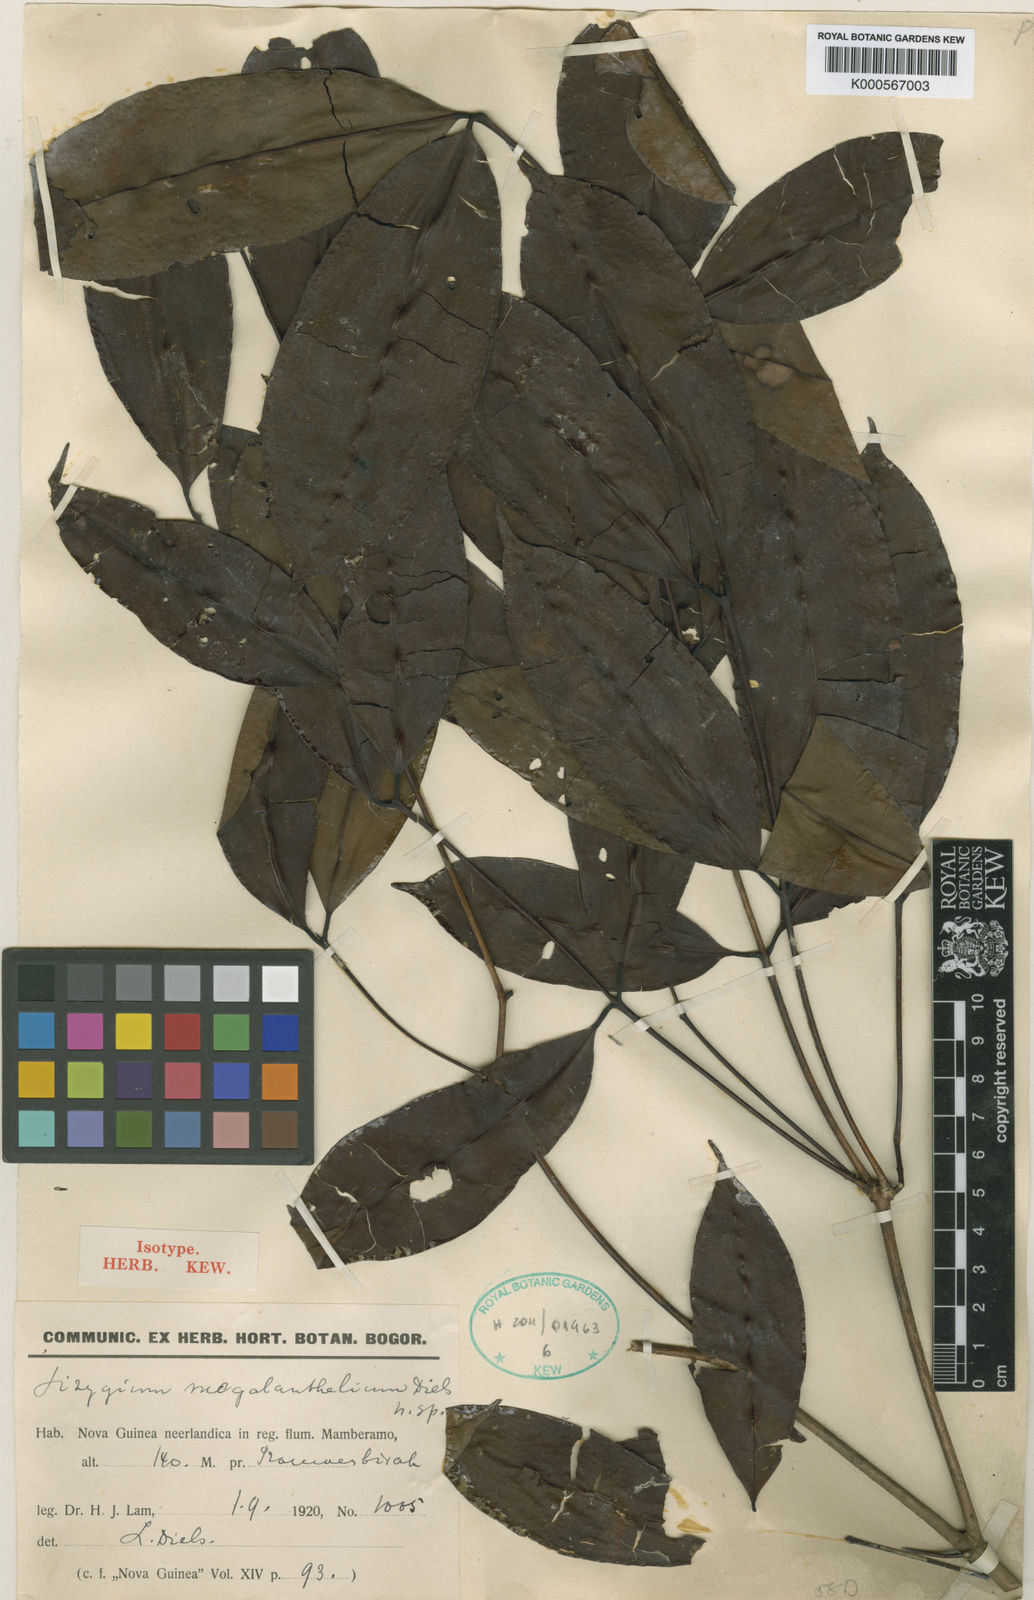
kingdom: Plantae
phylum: Tracheophyta
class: Magnoliopsida
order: Myrtales
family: Myrtaceae
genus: Syzygium
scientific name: Syzygium decipiens
